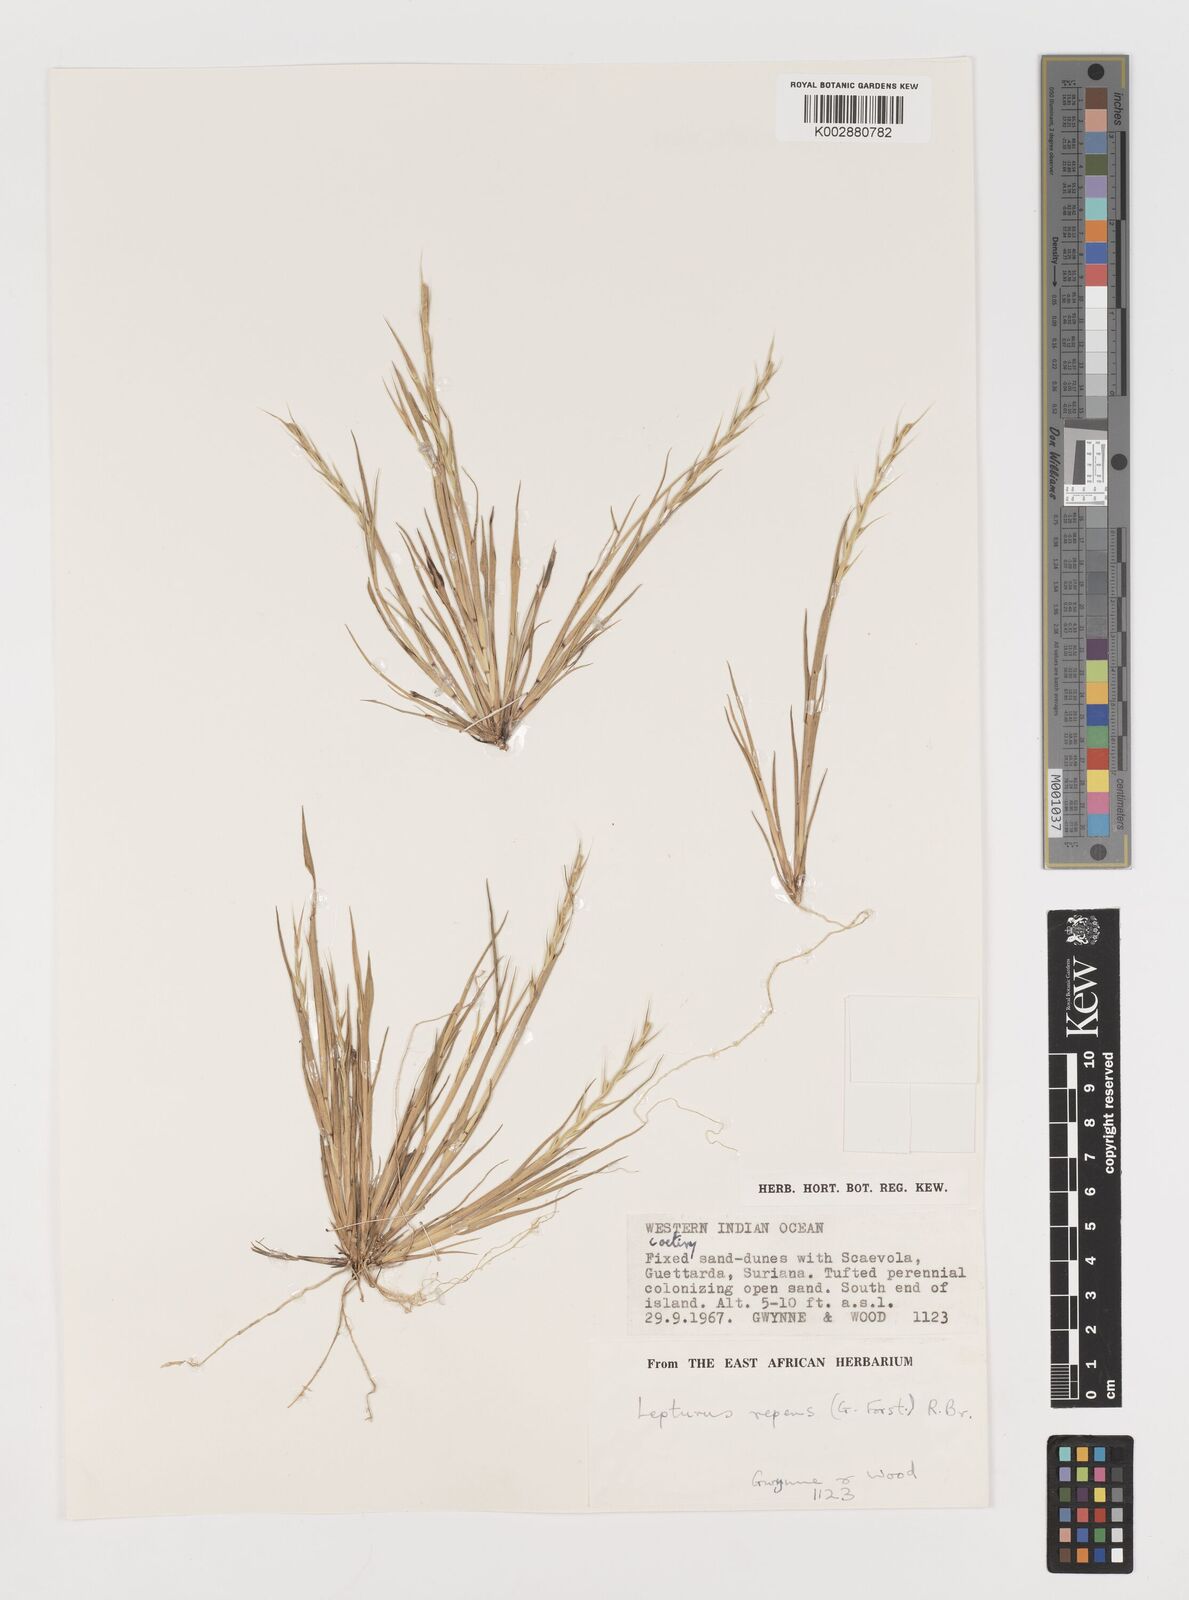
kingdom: Plantae
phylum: Tracheophyta
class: Liliopsida
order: Poales
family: Poaceae
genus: Lepturus
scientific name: Lepturus repens
